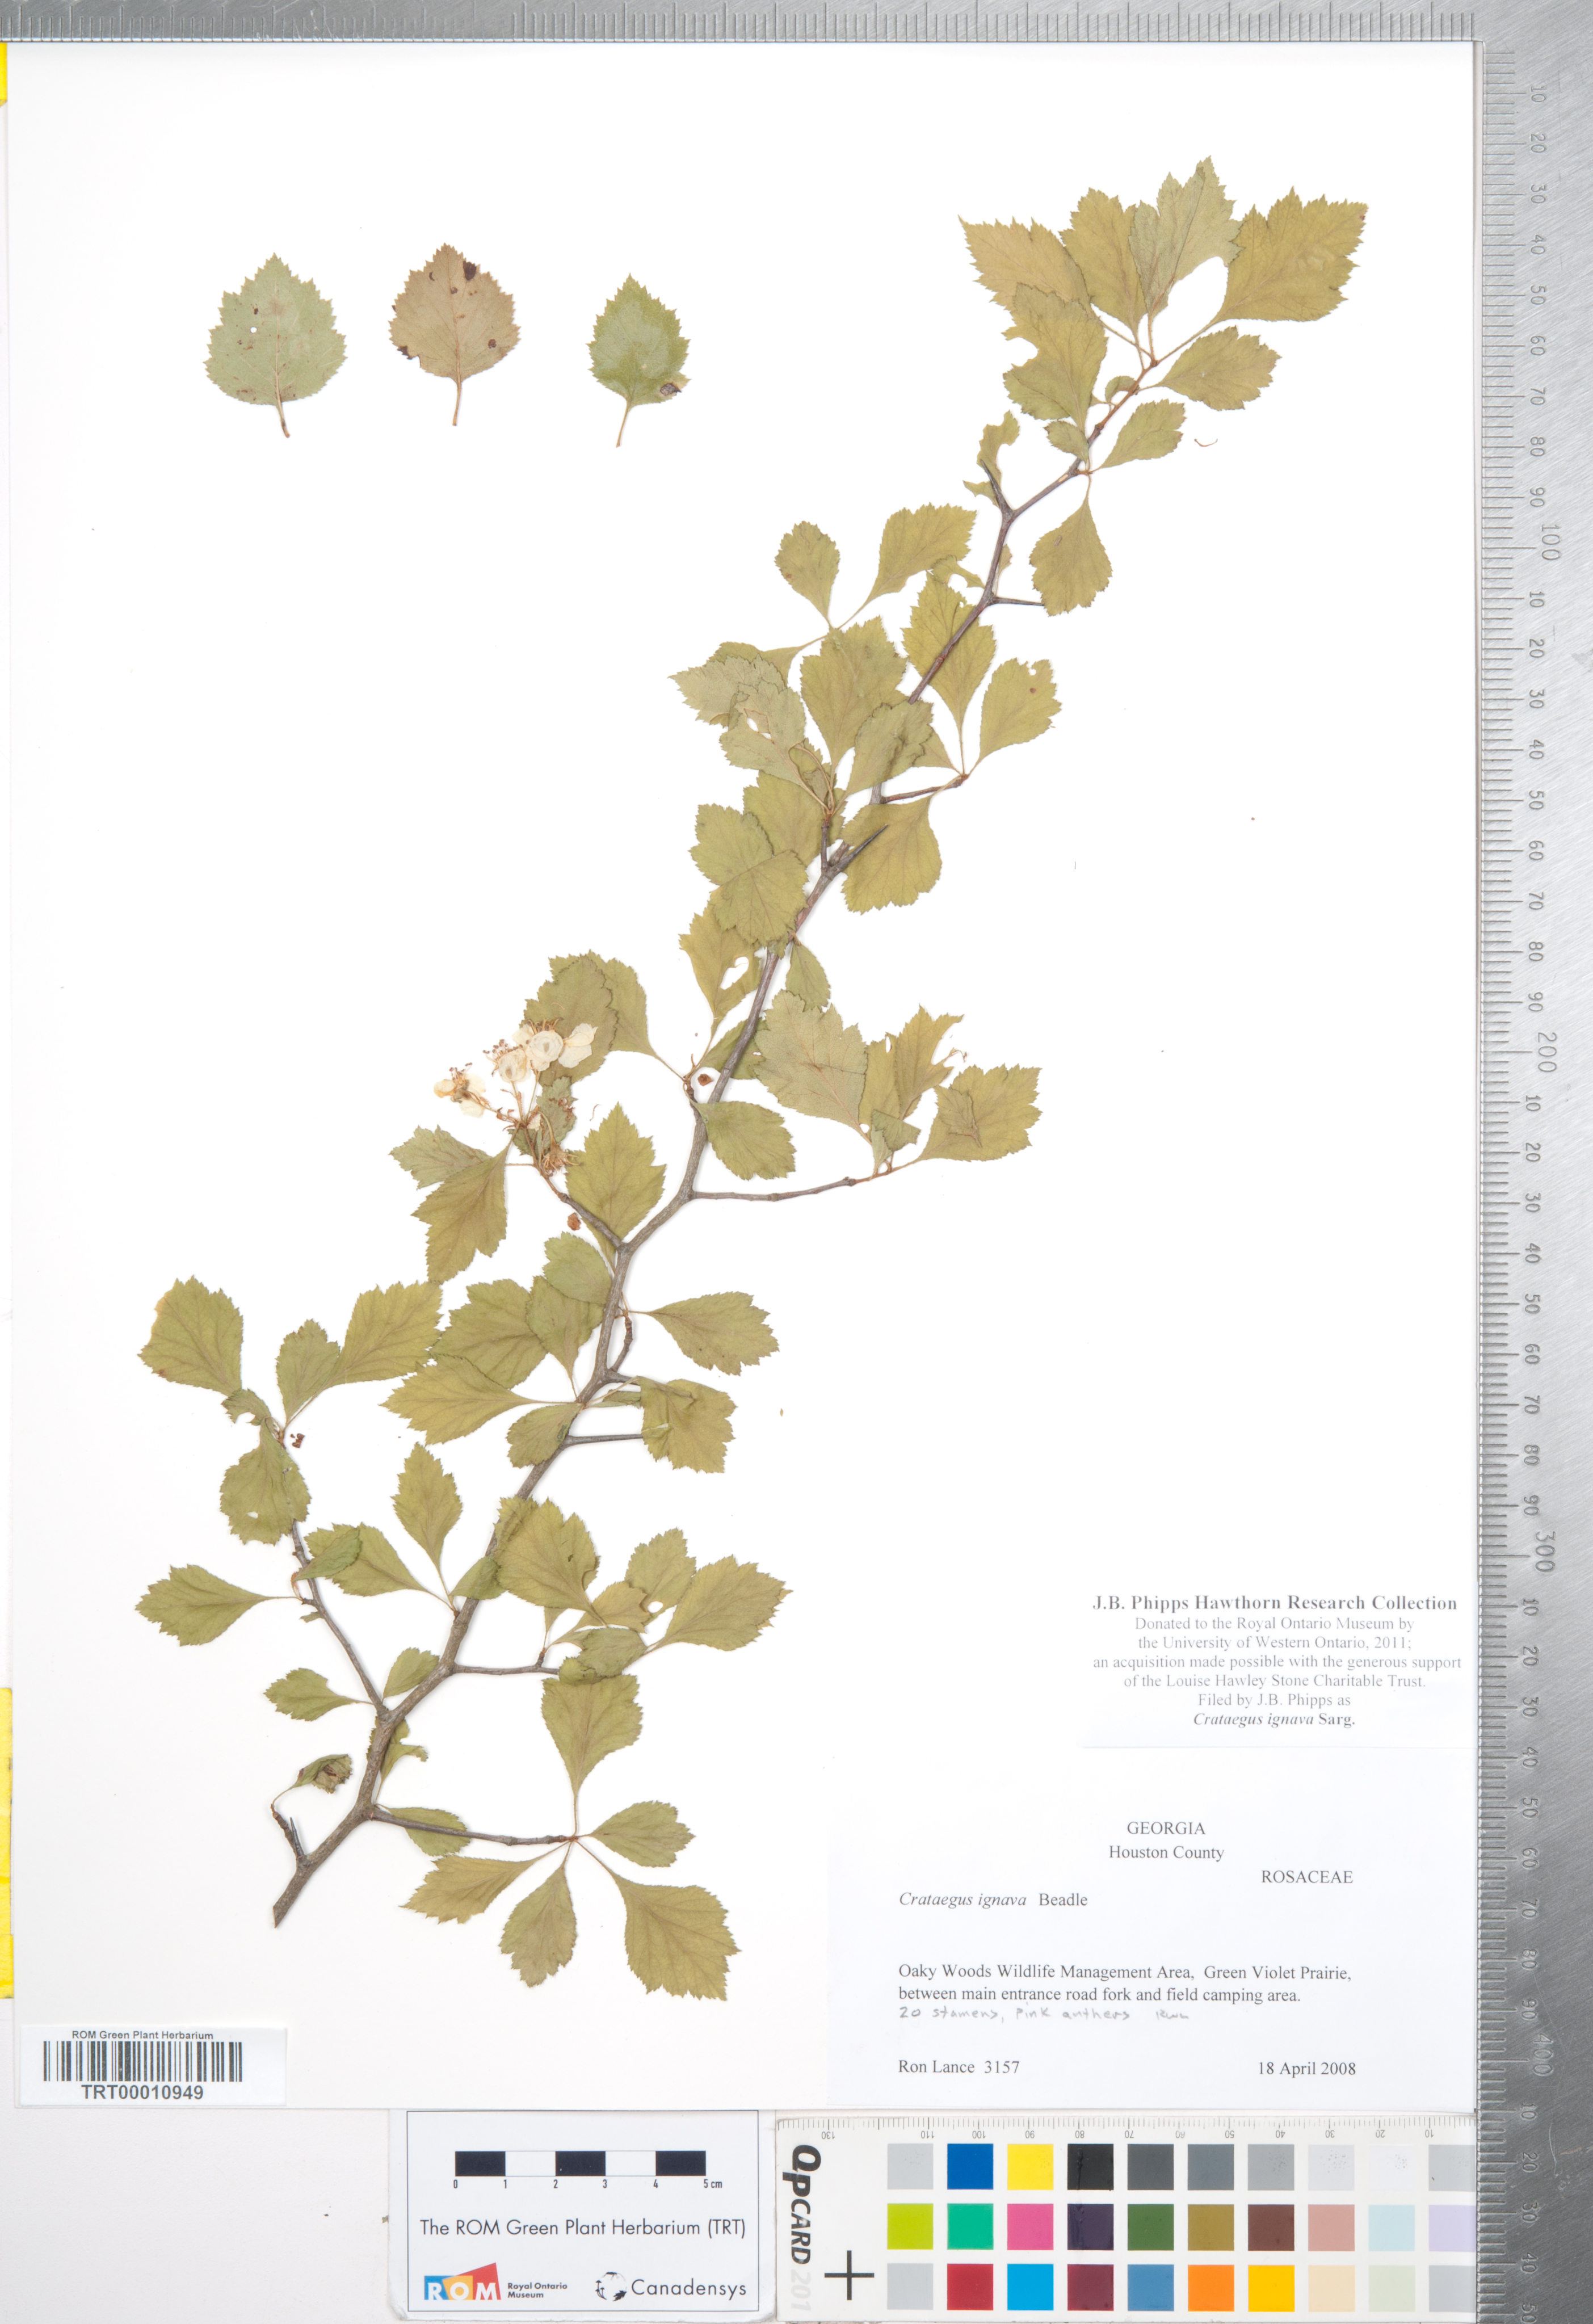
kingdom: Plantae
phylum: Tracheophyta
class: Magnoliopsida
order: Rosales
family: Rosaceae
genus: Crataegus
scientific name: Crataegus ignava
